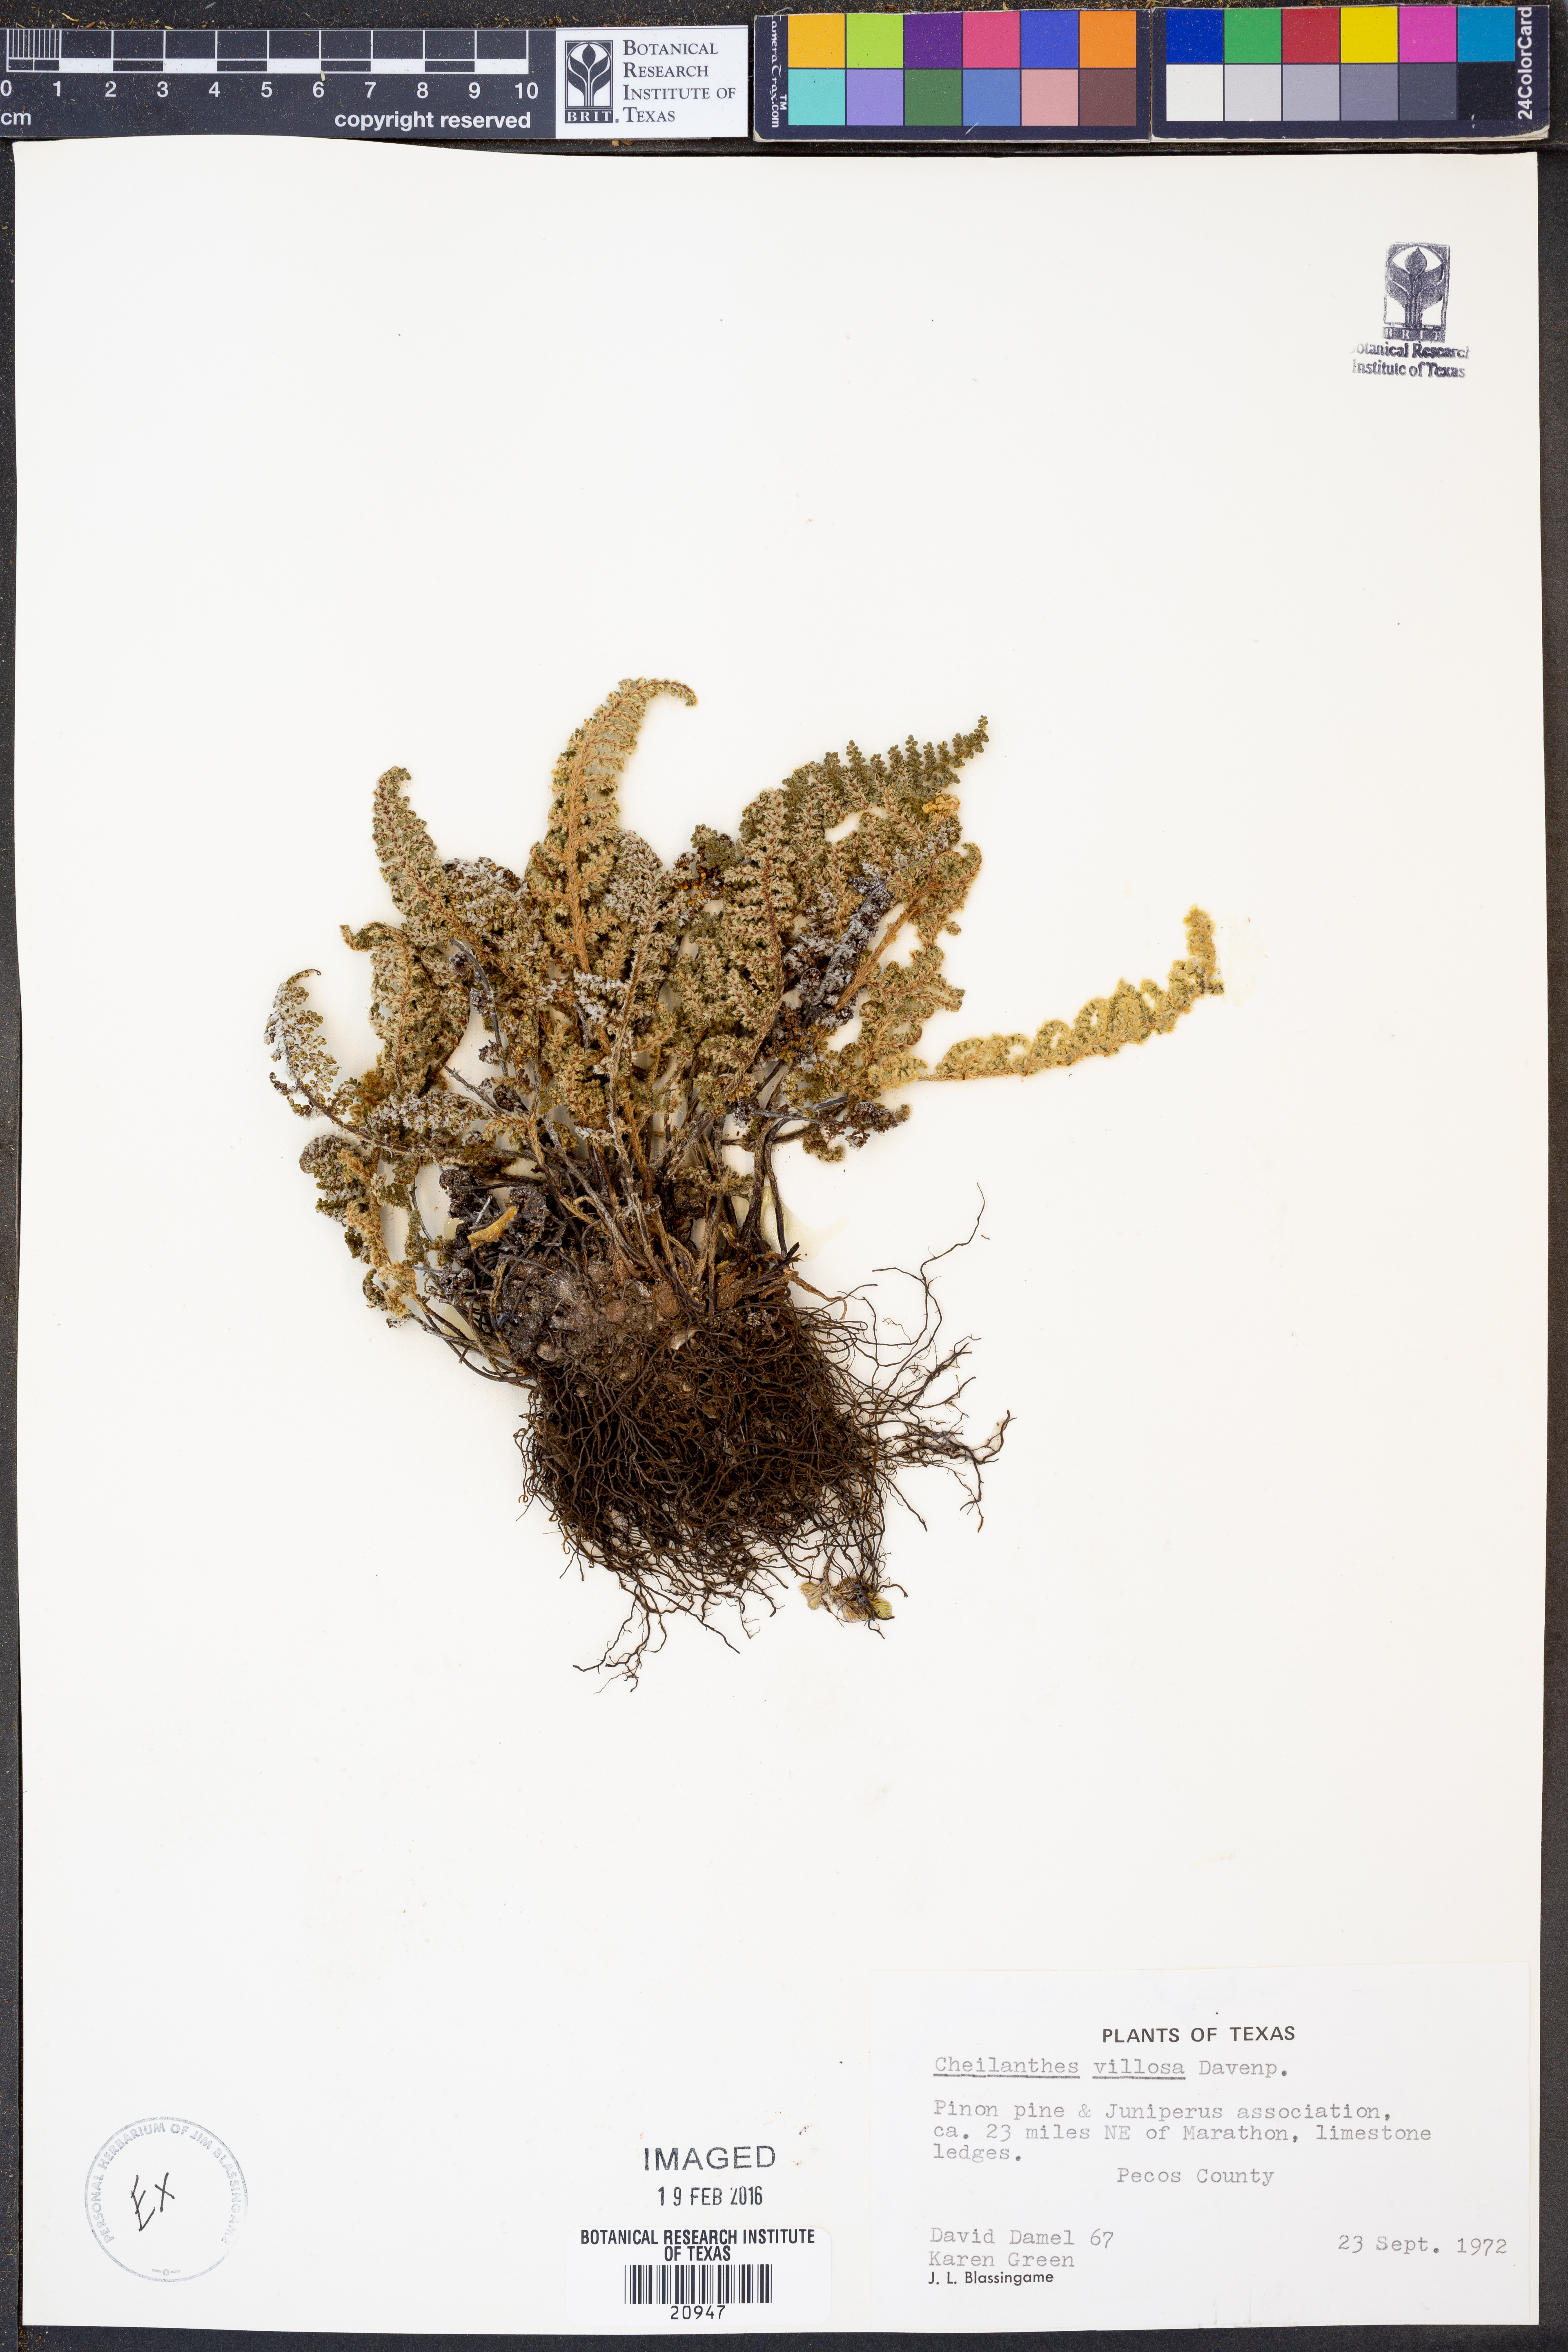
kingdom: Plantae
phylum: Tracheophyta
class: Polypodiopsida
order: Polypodiales
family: Pteridaceae
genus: Myriopteris
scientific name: Myriopteris windhamii
